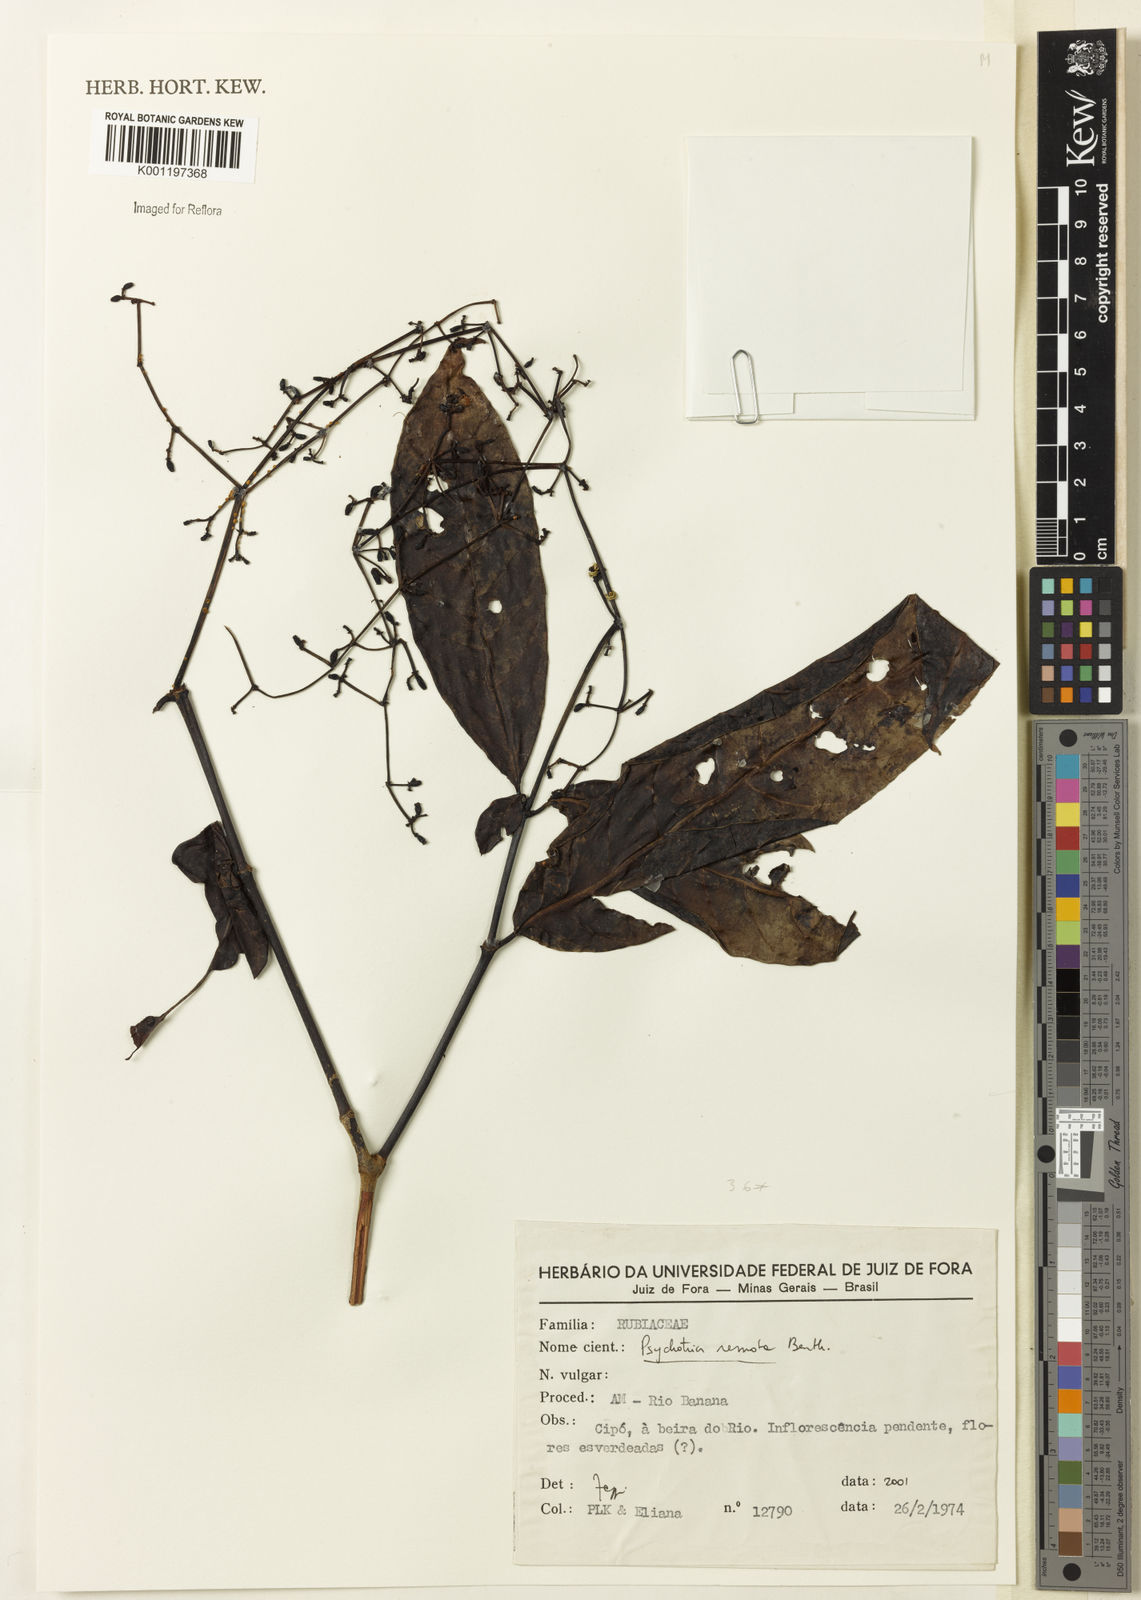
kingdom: Plantae
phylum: Tracheophyta
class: Magnoliopsida
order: Gentianales
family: Rubiaceae
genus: Psychotria
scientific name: Psychotria remota
